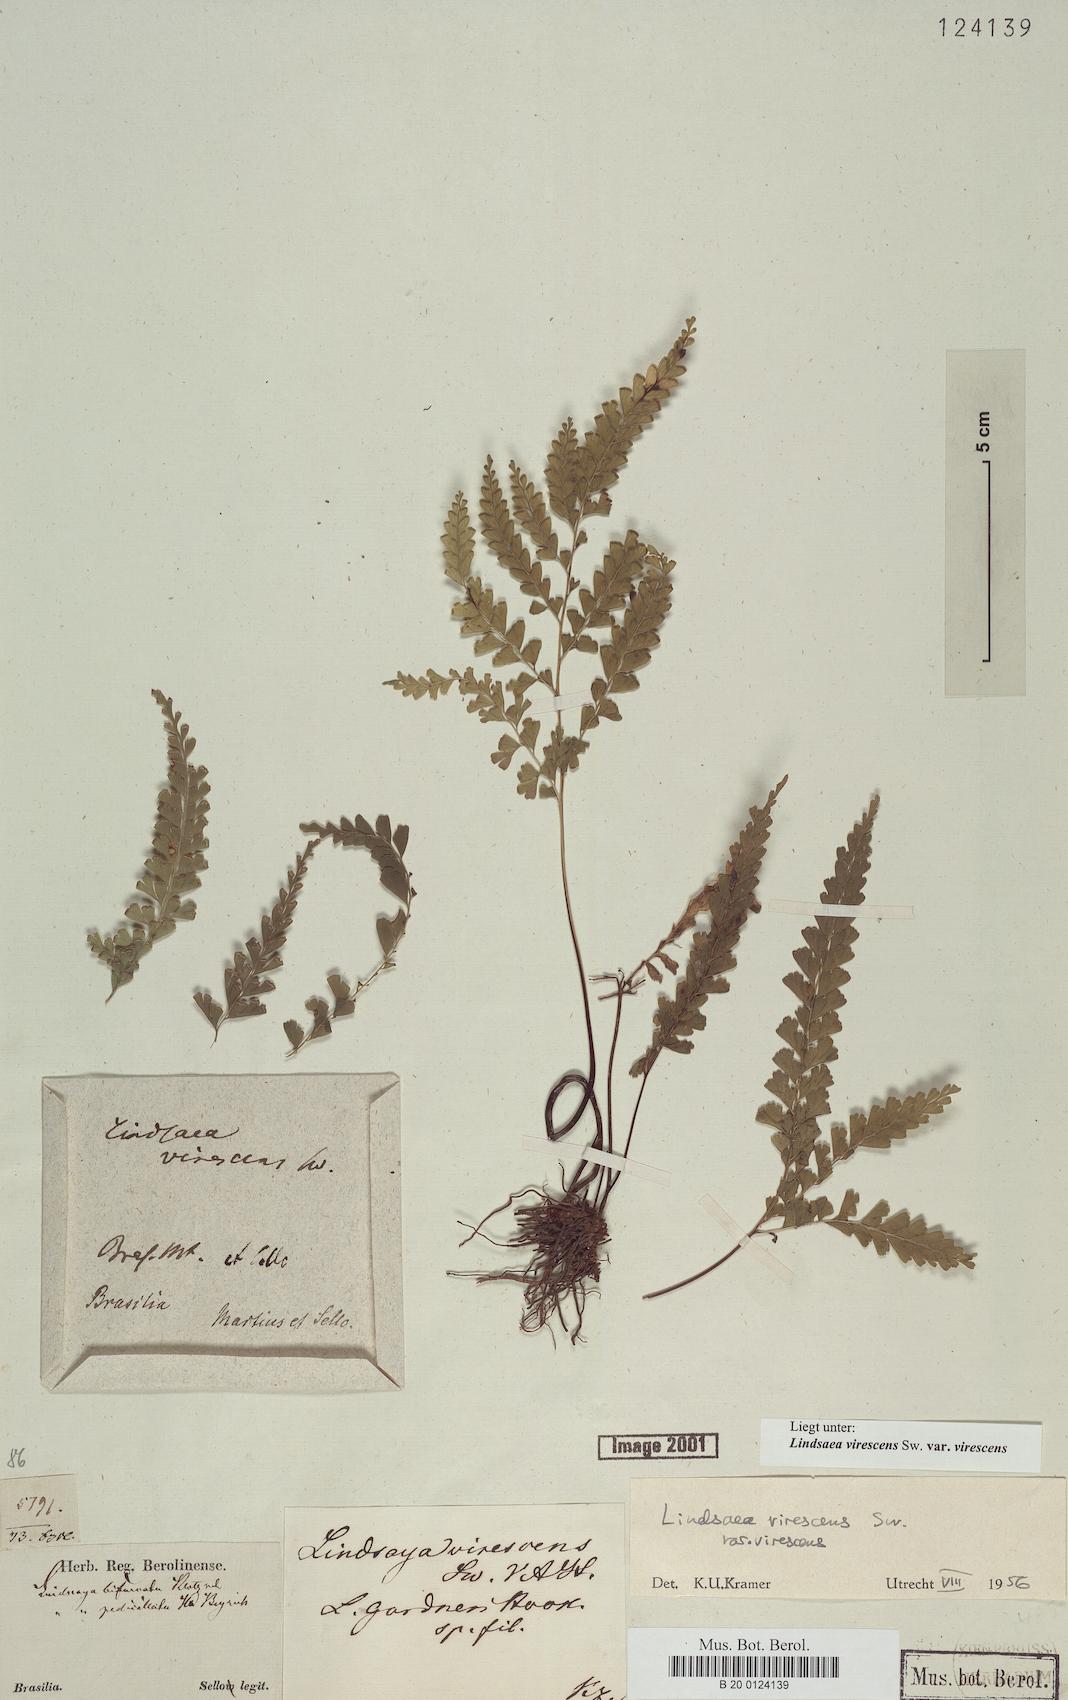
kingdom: Plantae
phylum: Tracheophyta
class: Polypodiopsida
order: Polypodiales
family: Lindsaeaceae
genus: Lindsaea
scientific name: Lindsaea virescens
